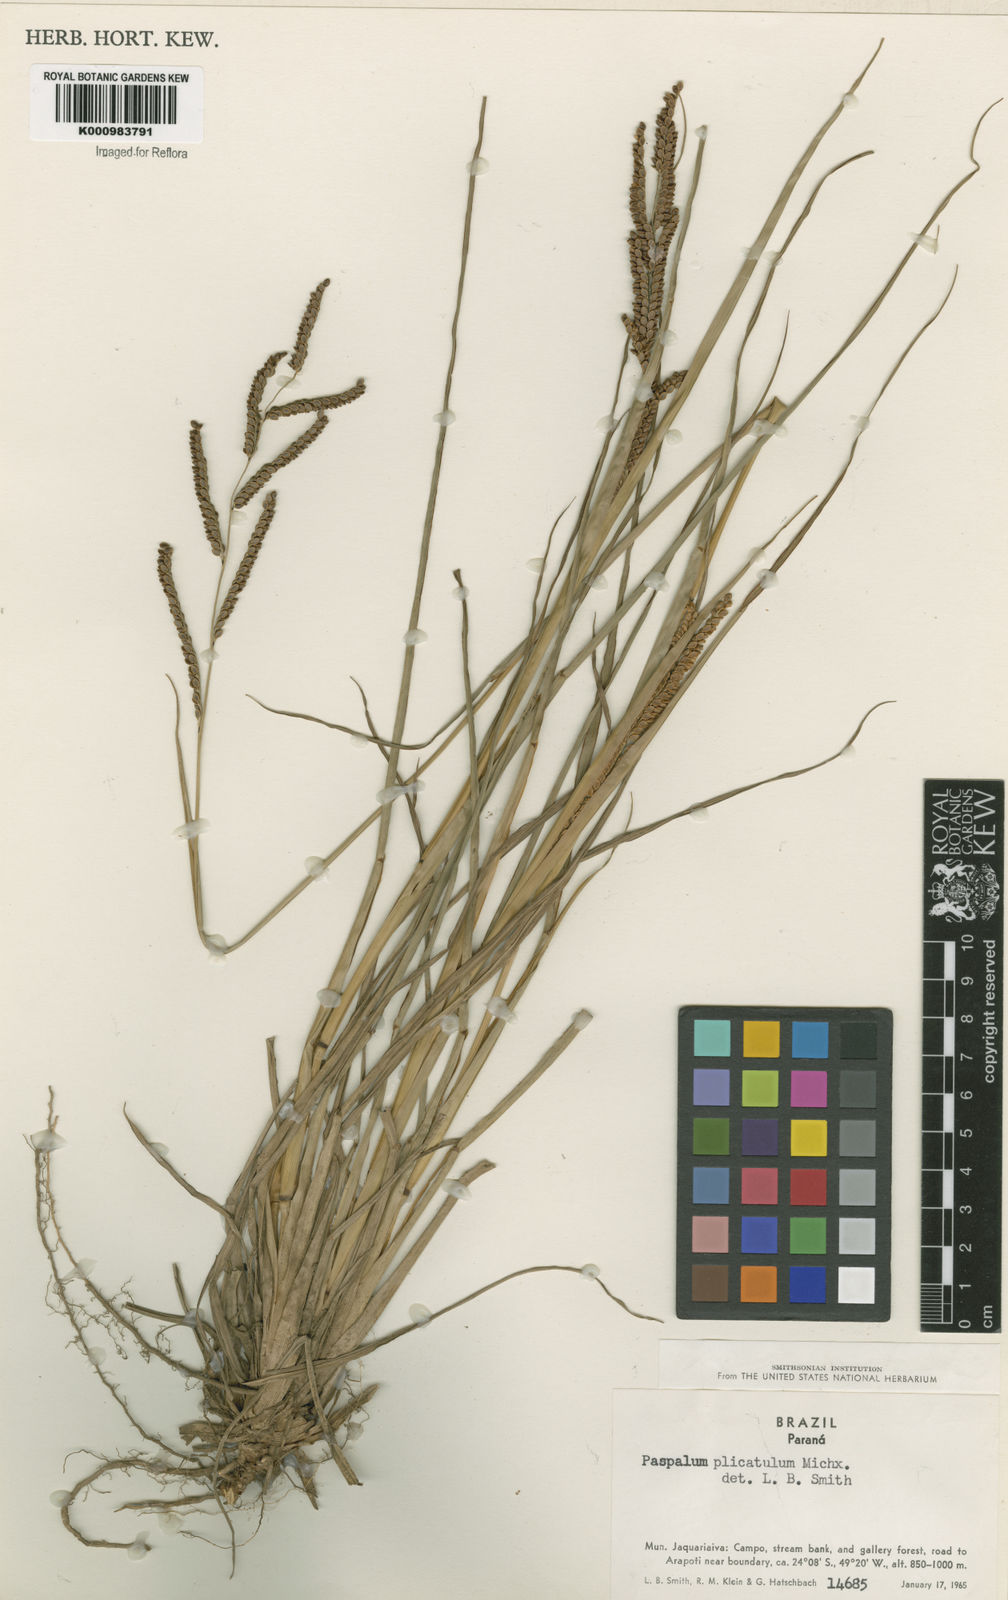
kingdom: Plantae
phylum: Tracheophyta
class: Liliopsida
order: Poales
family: Poaceae
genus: Paspalum
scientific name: Paspalum plicatulum
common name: Top paspalum
